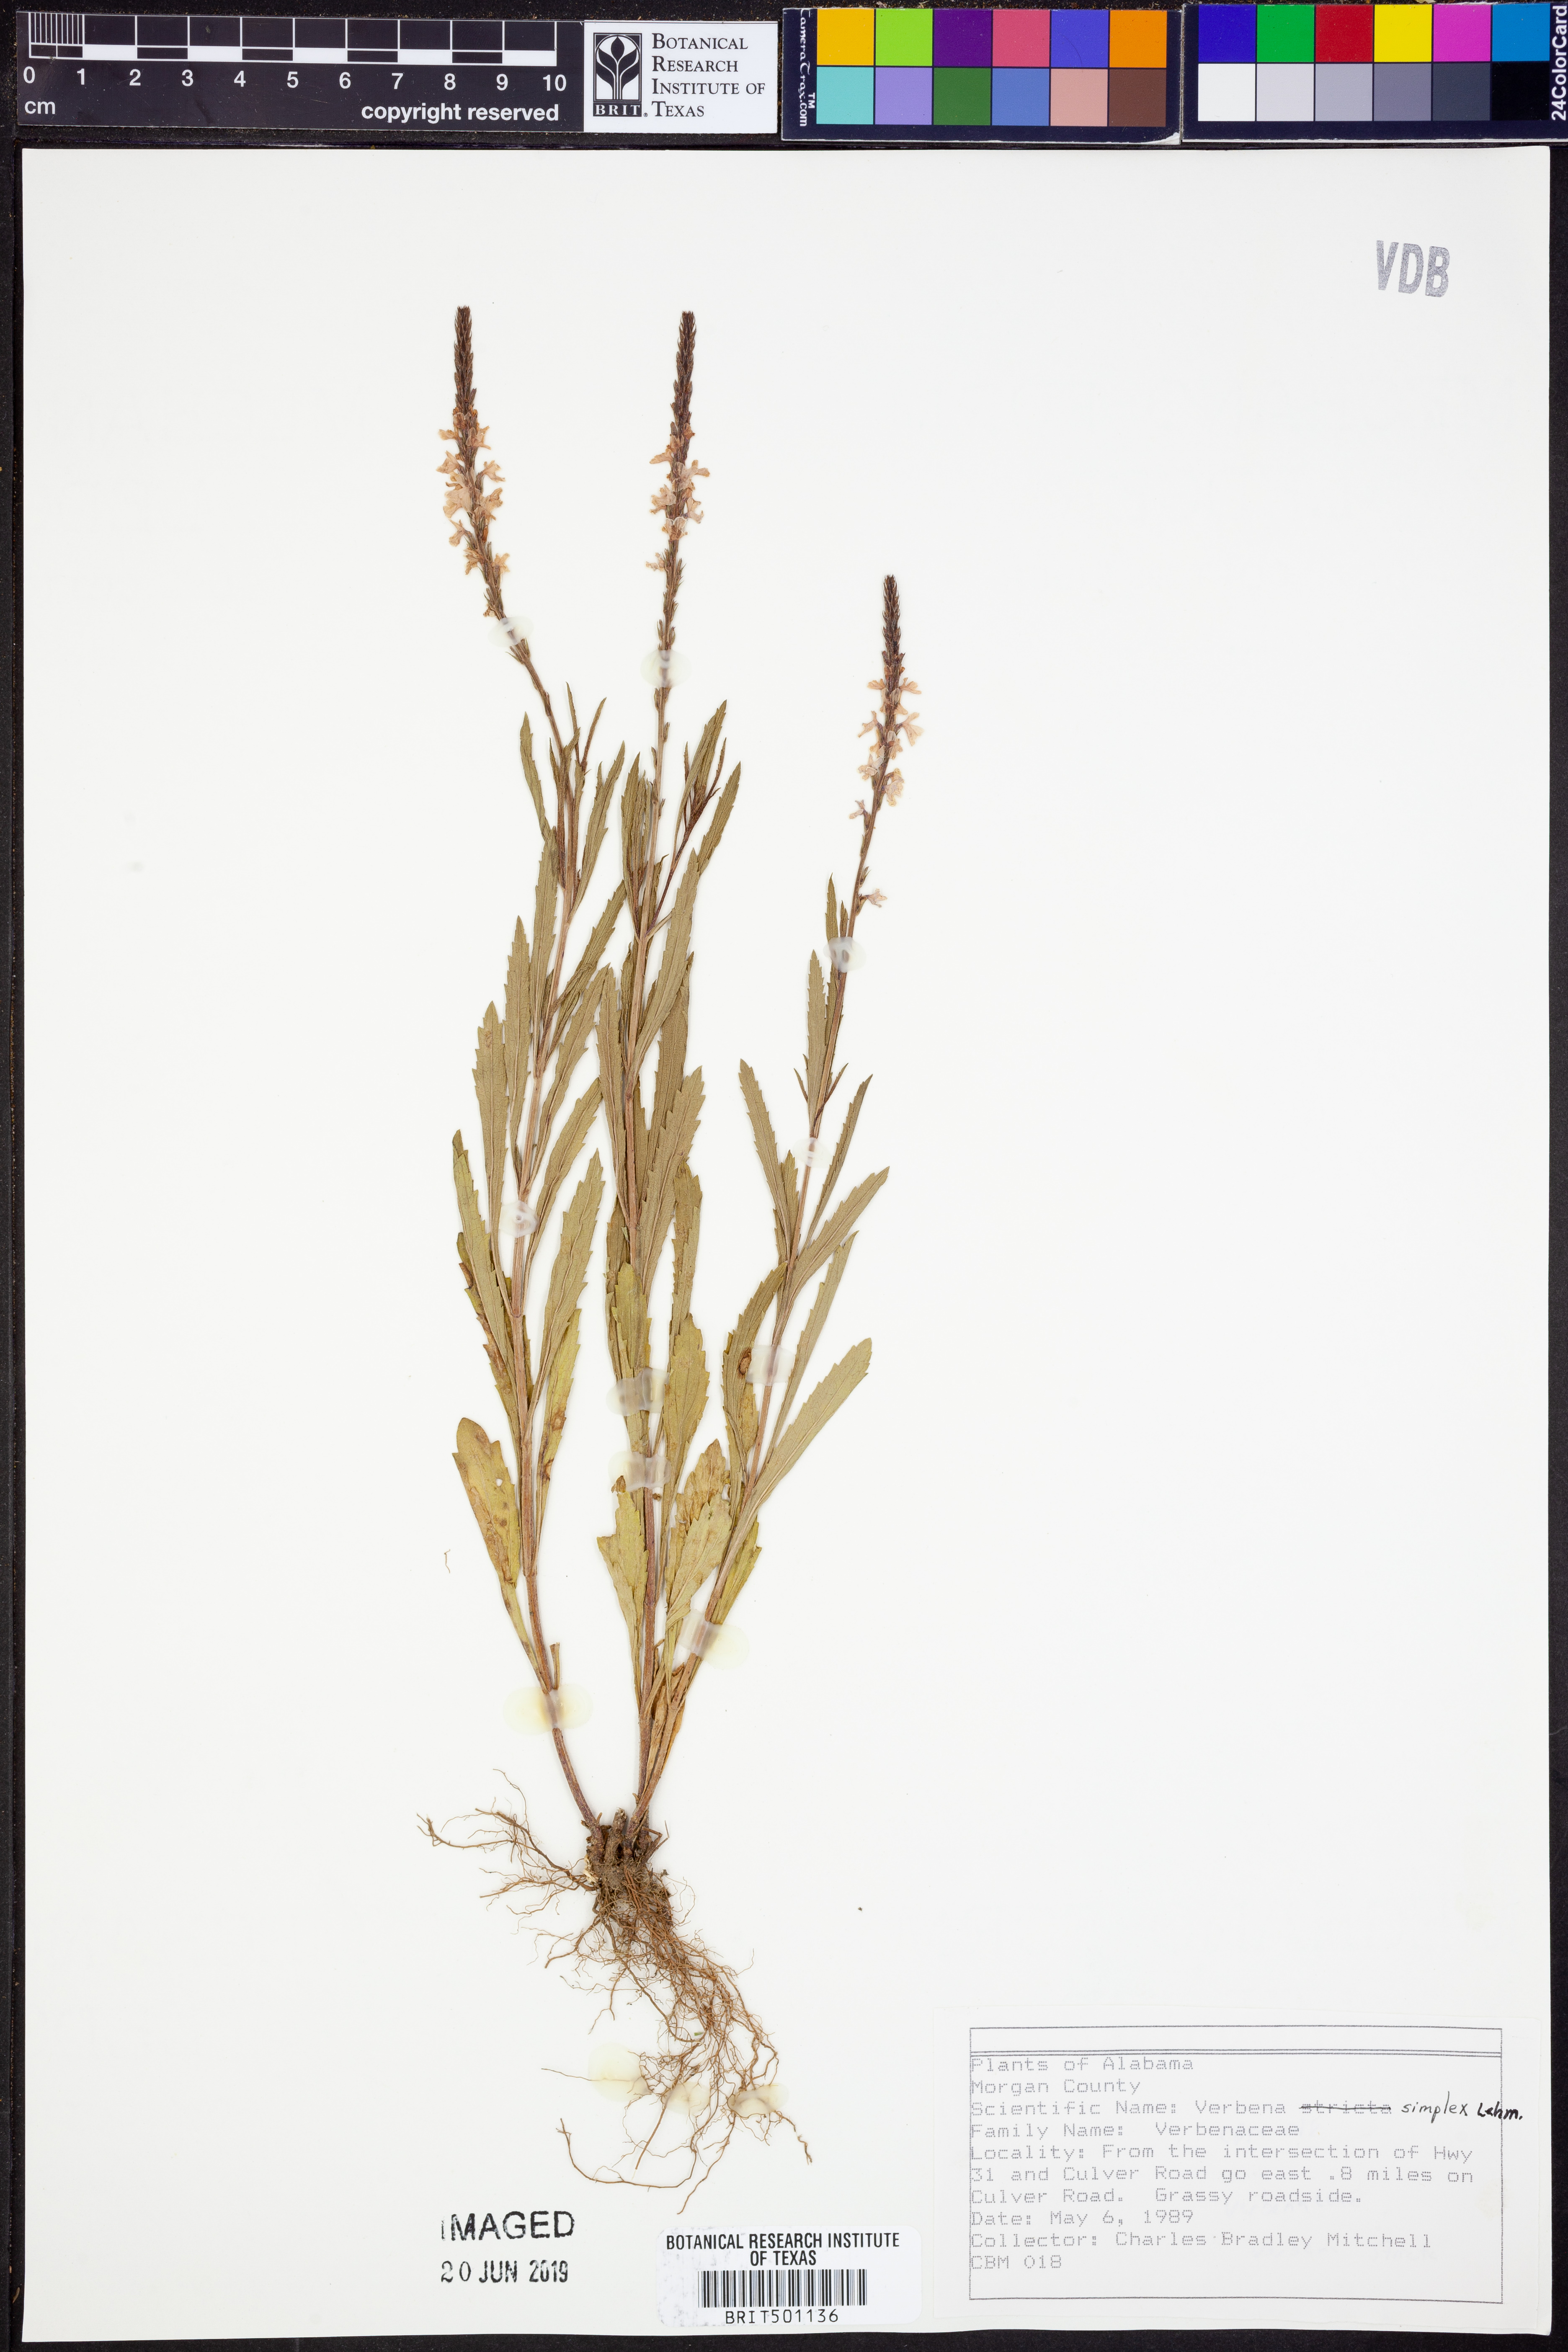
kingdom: Plantae
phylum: Tracheophyta
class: Magnoliopsida
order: Lamiales
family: Verbenaceae
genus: Verbena
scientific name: Verbena simplex
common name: Narrow-leaf vervain
